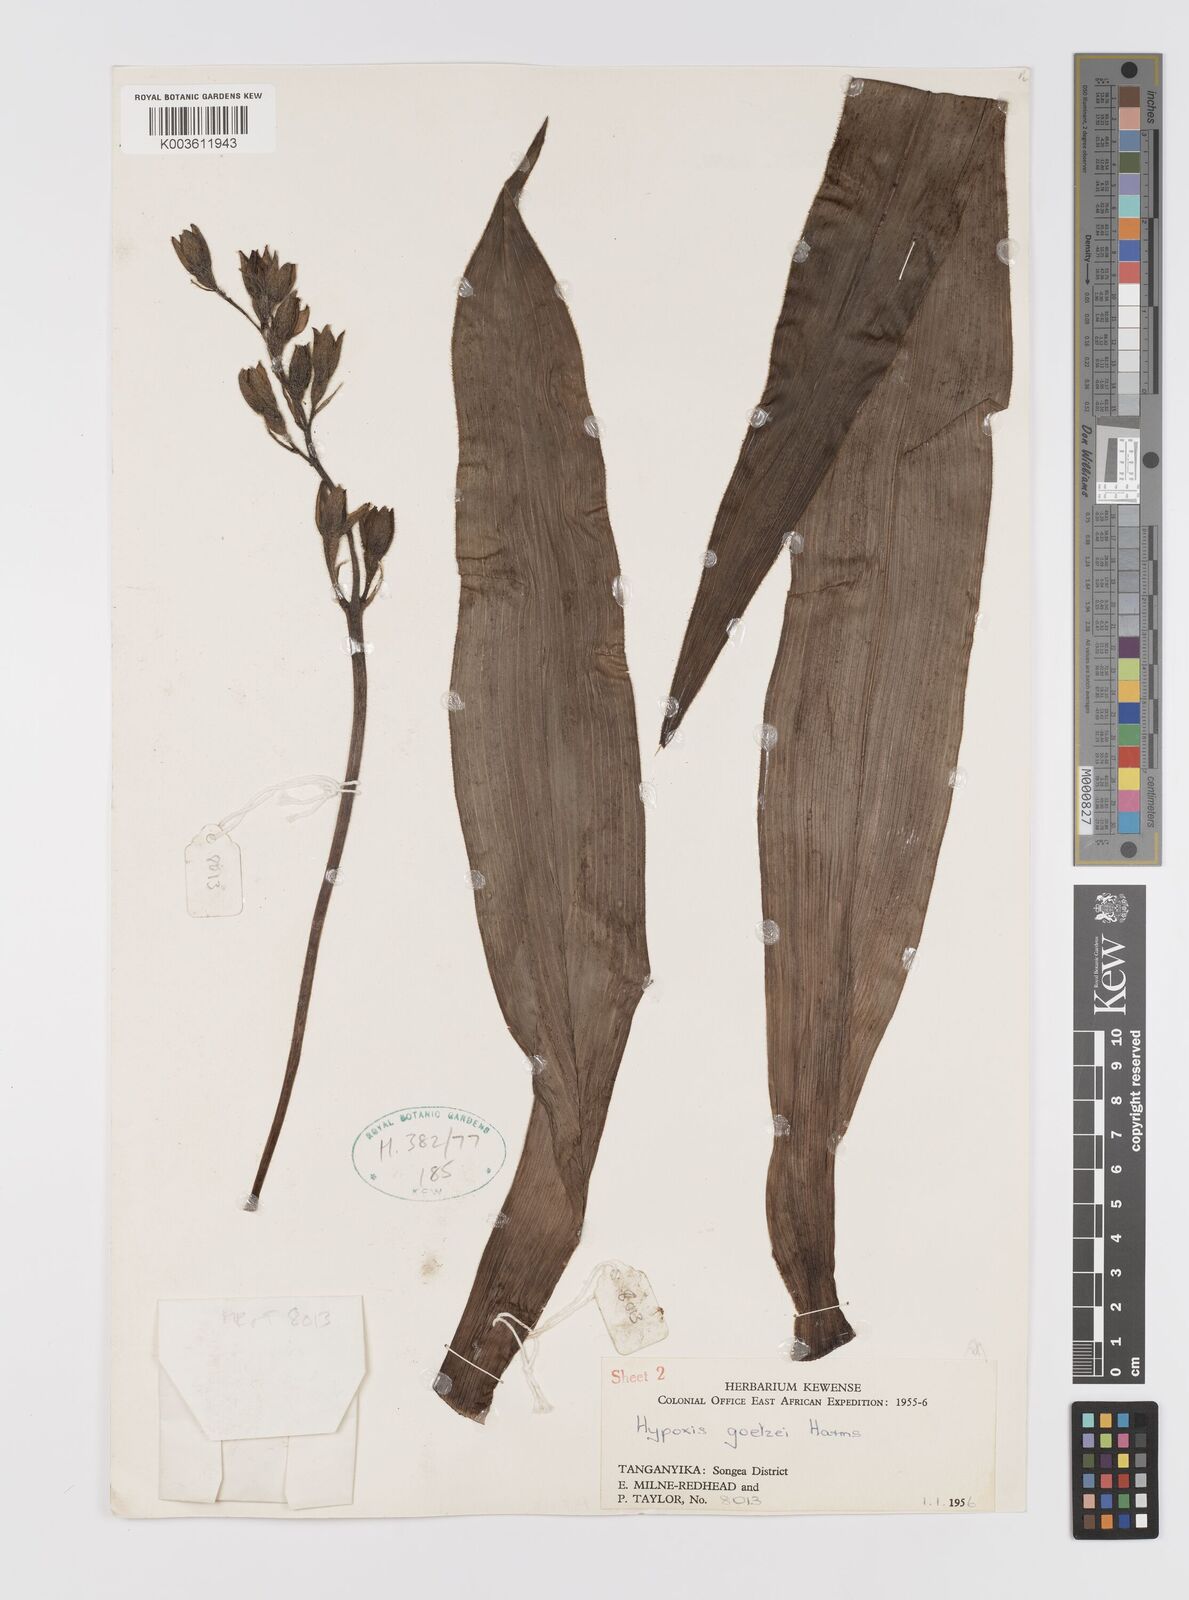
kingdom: Plantae
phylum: Tracheophyta
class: Liliopsida
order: Asparagales
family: Hypoxidaceae
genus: Hypoxis
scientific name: Hypoxis goetzei
